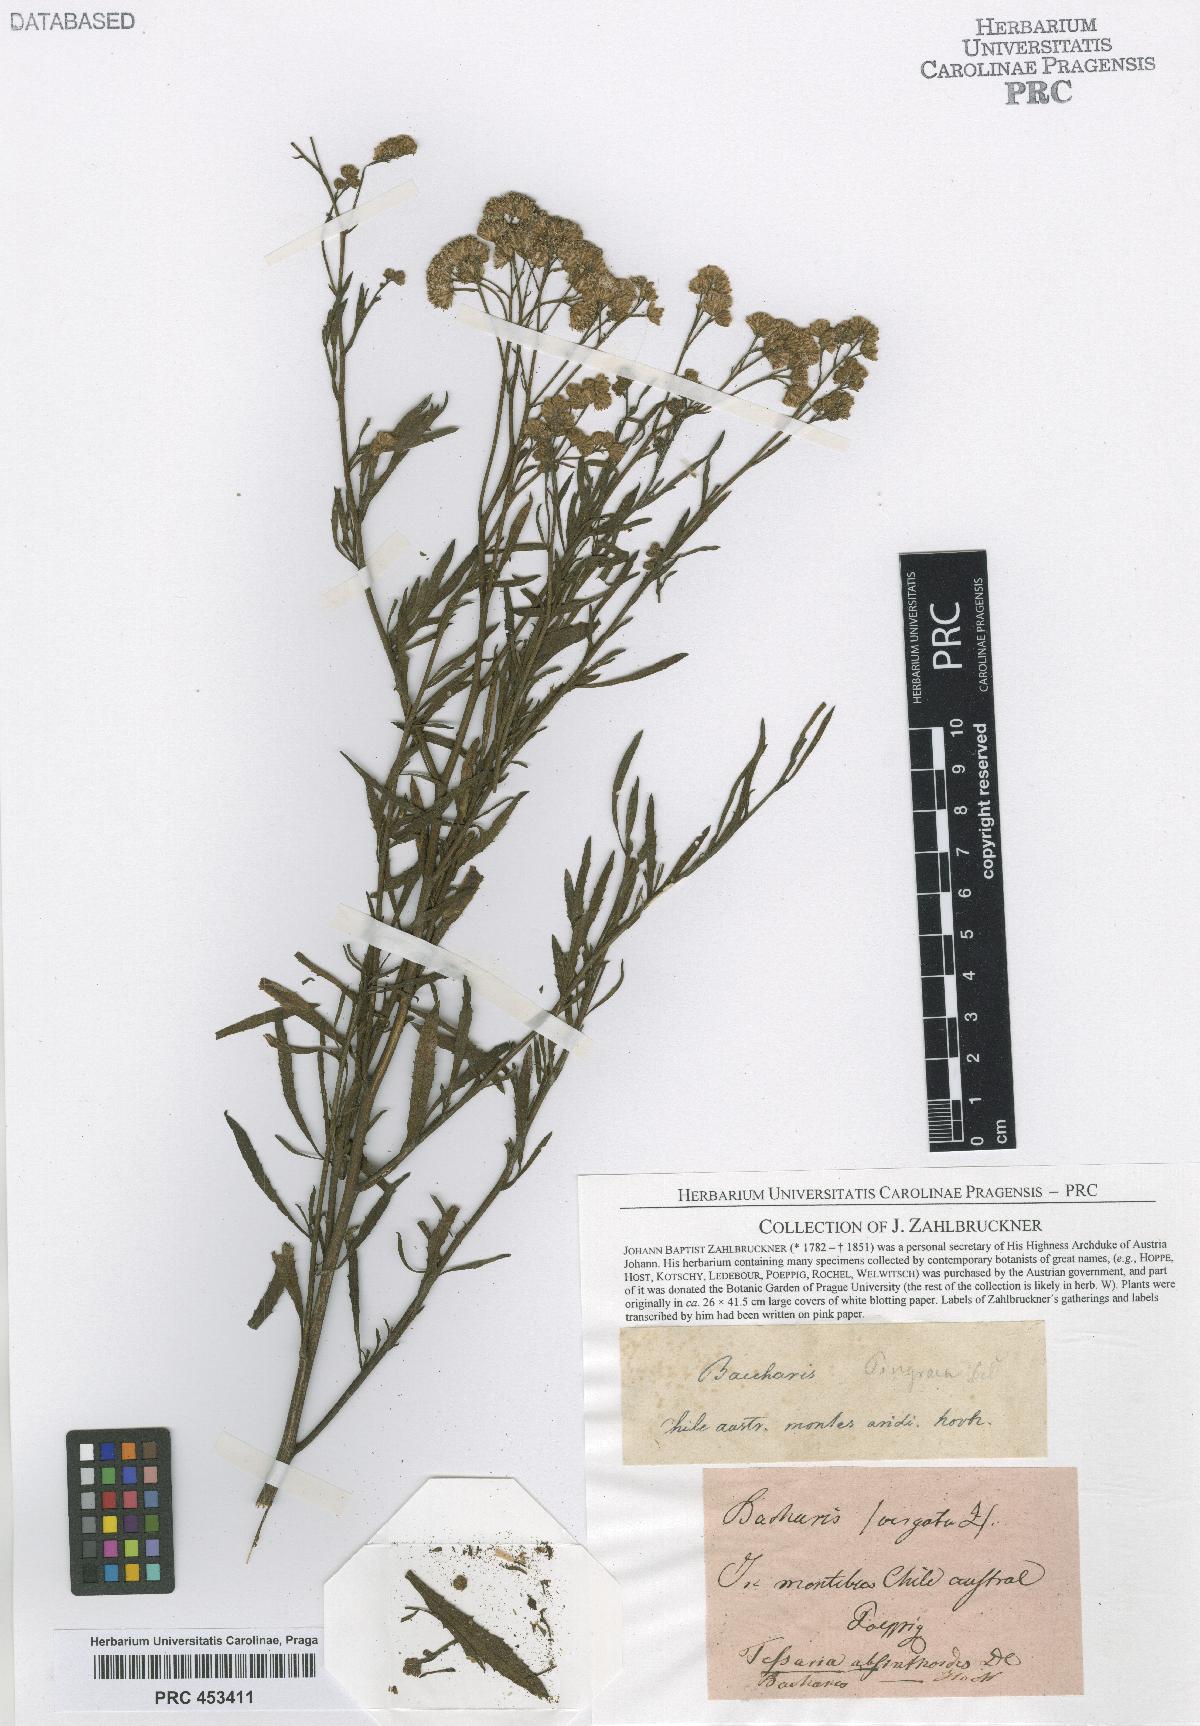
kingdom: Plantae
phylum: Tracheophyta
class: Magnoliopsida
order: Asterales
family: Asteraceae
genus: Baccharis
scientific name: Baccharis
